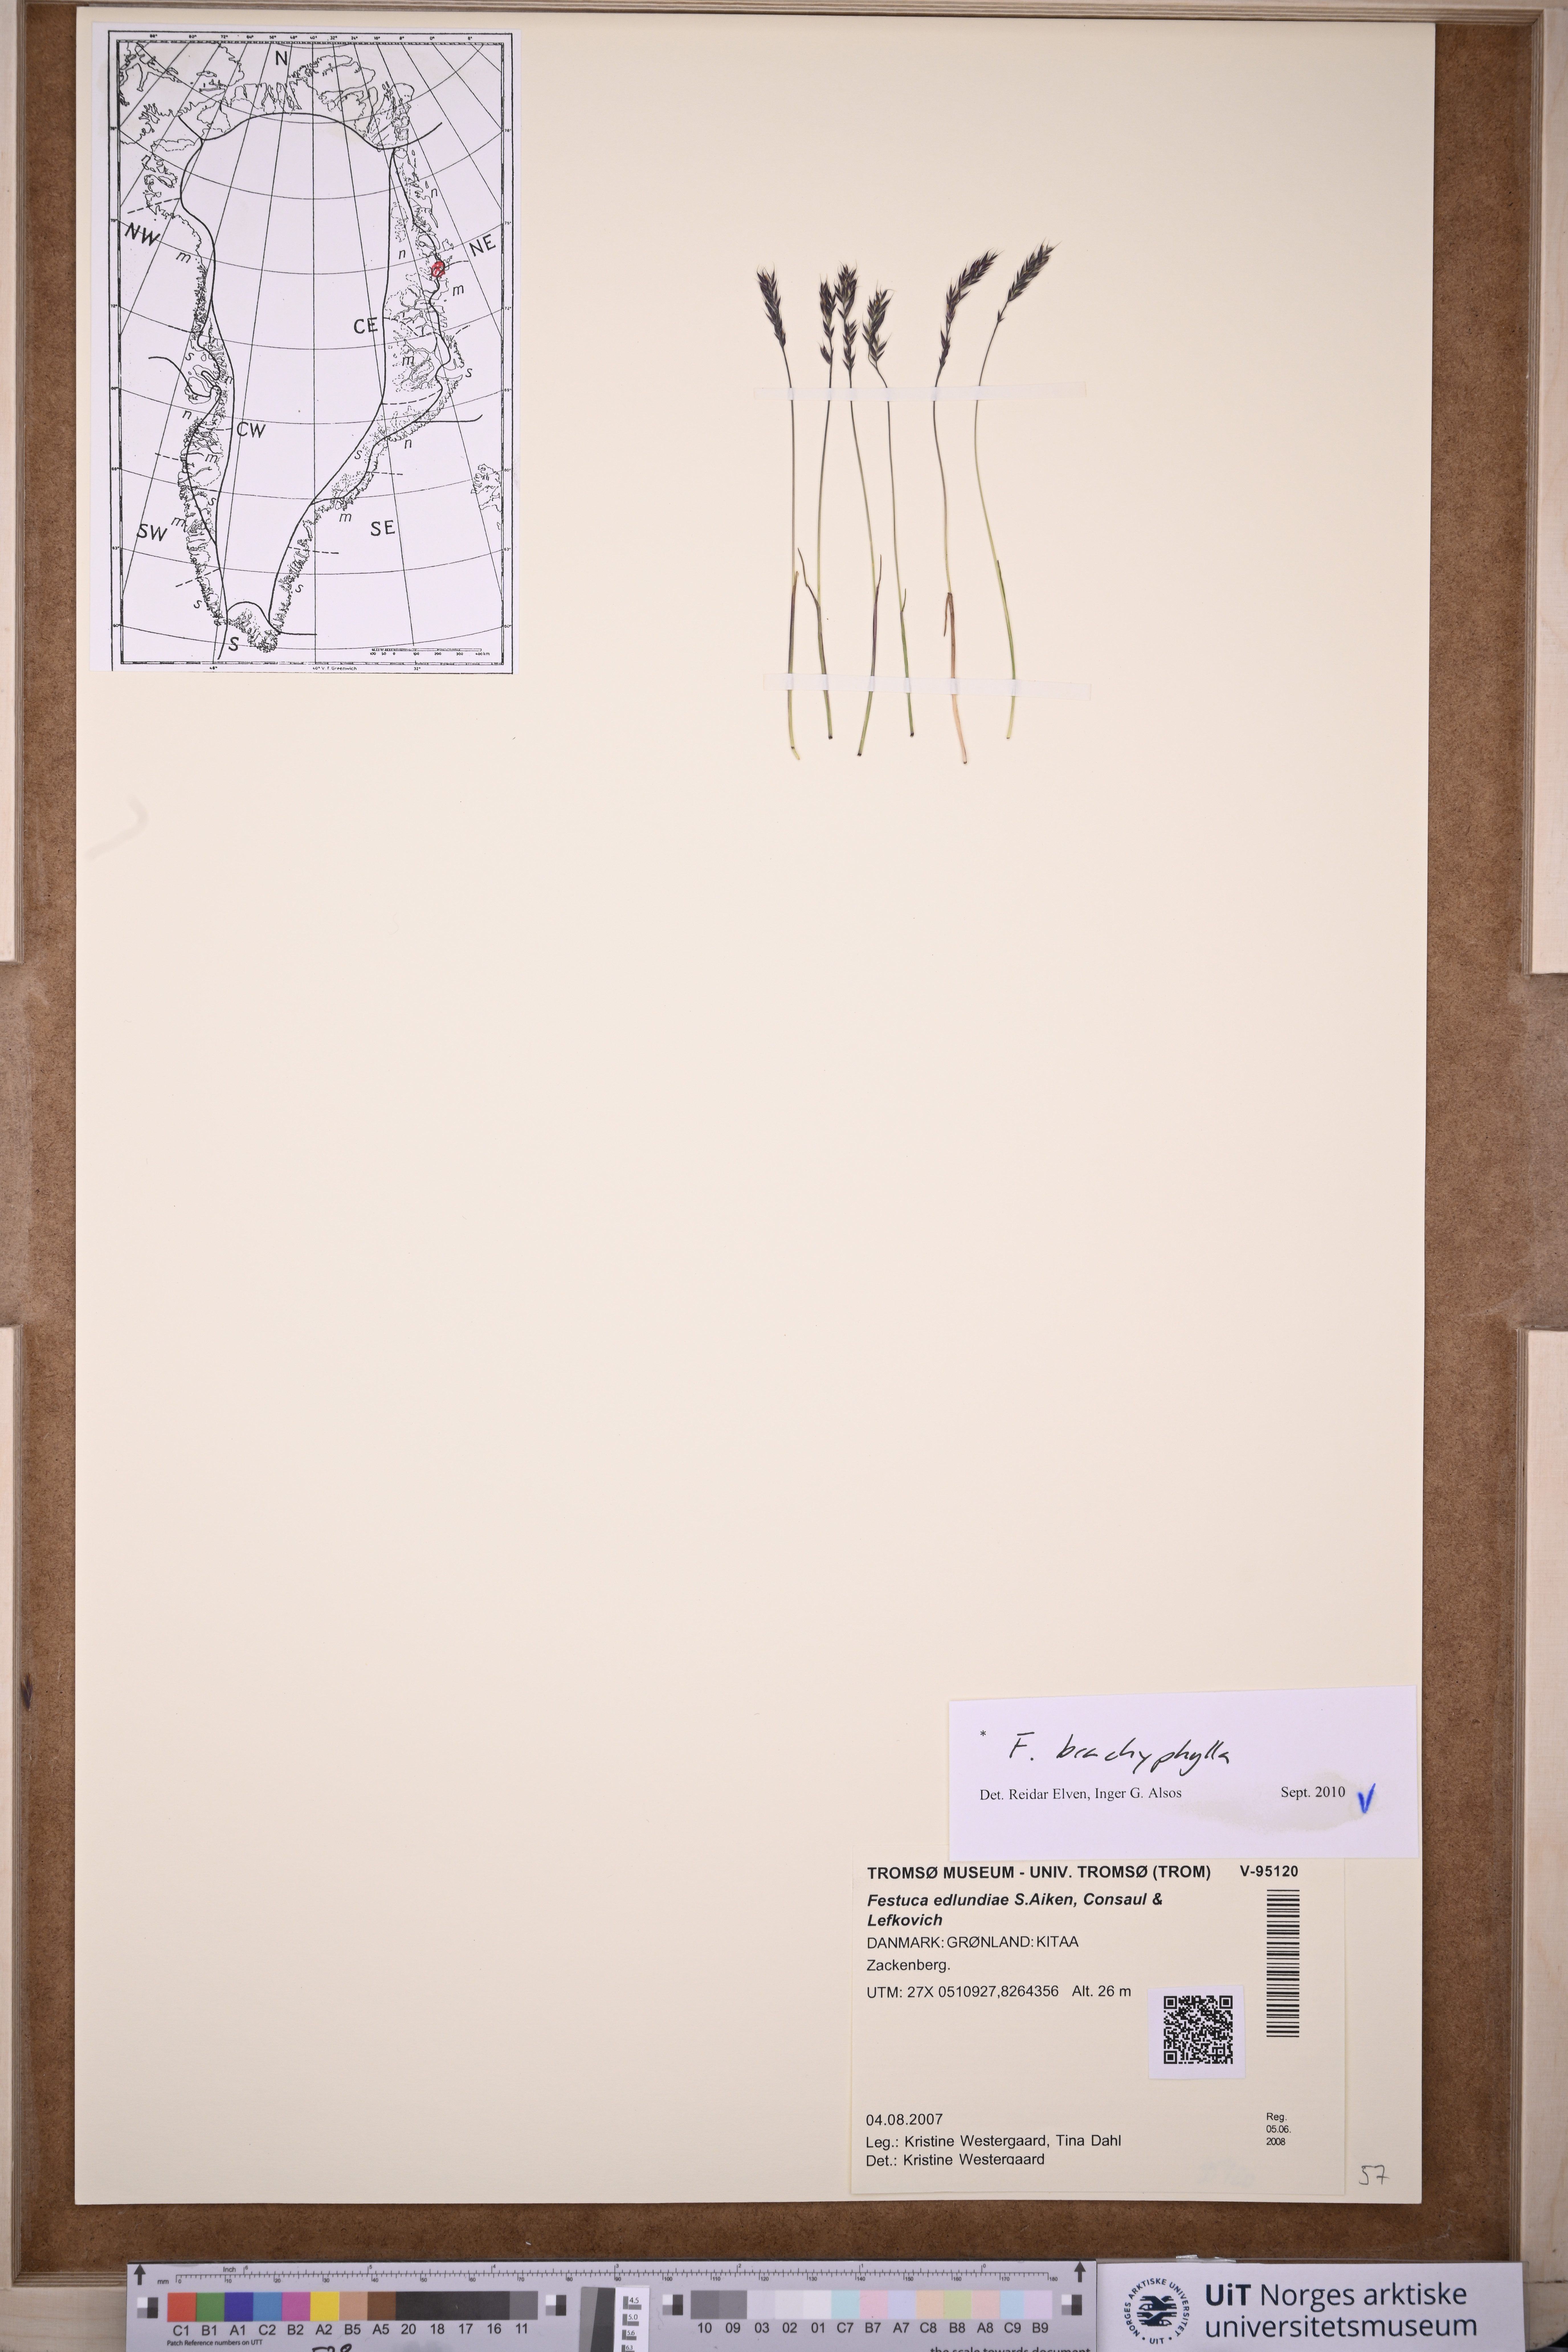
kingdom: Plantae
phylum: Tracheophyta
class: Liliopsida
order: Poales
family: Poaceae
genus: Festuca
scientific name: Festuca brachyphylla
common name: Alpine fescue
